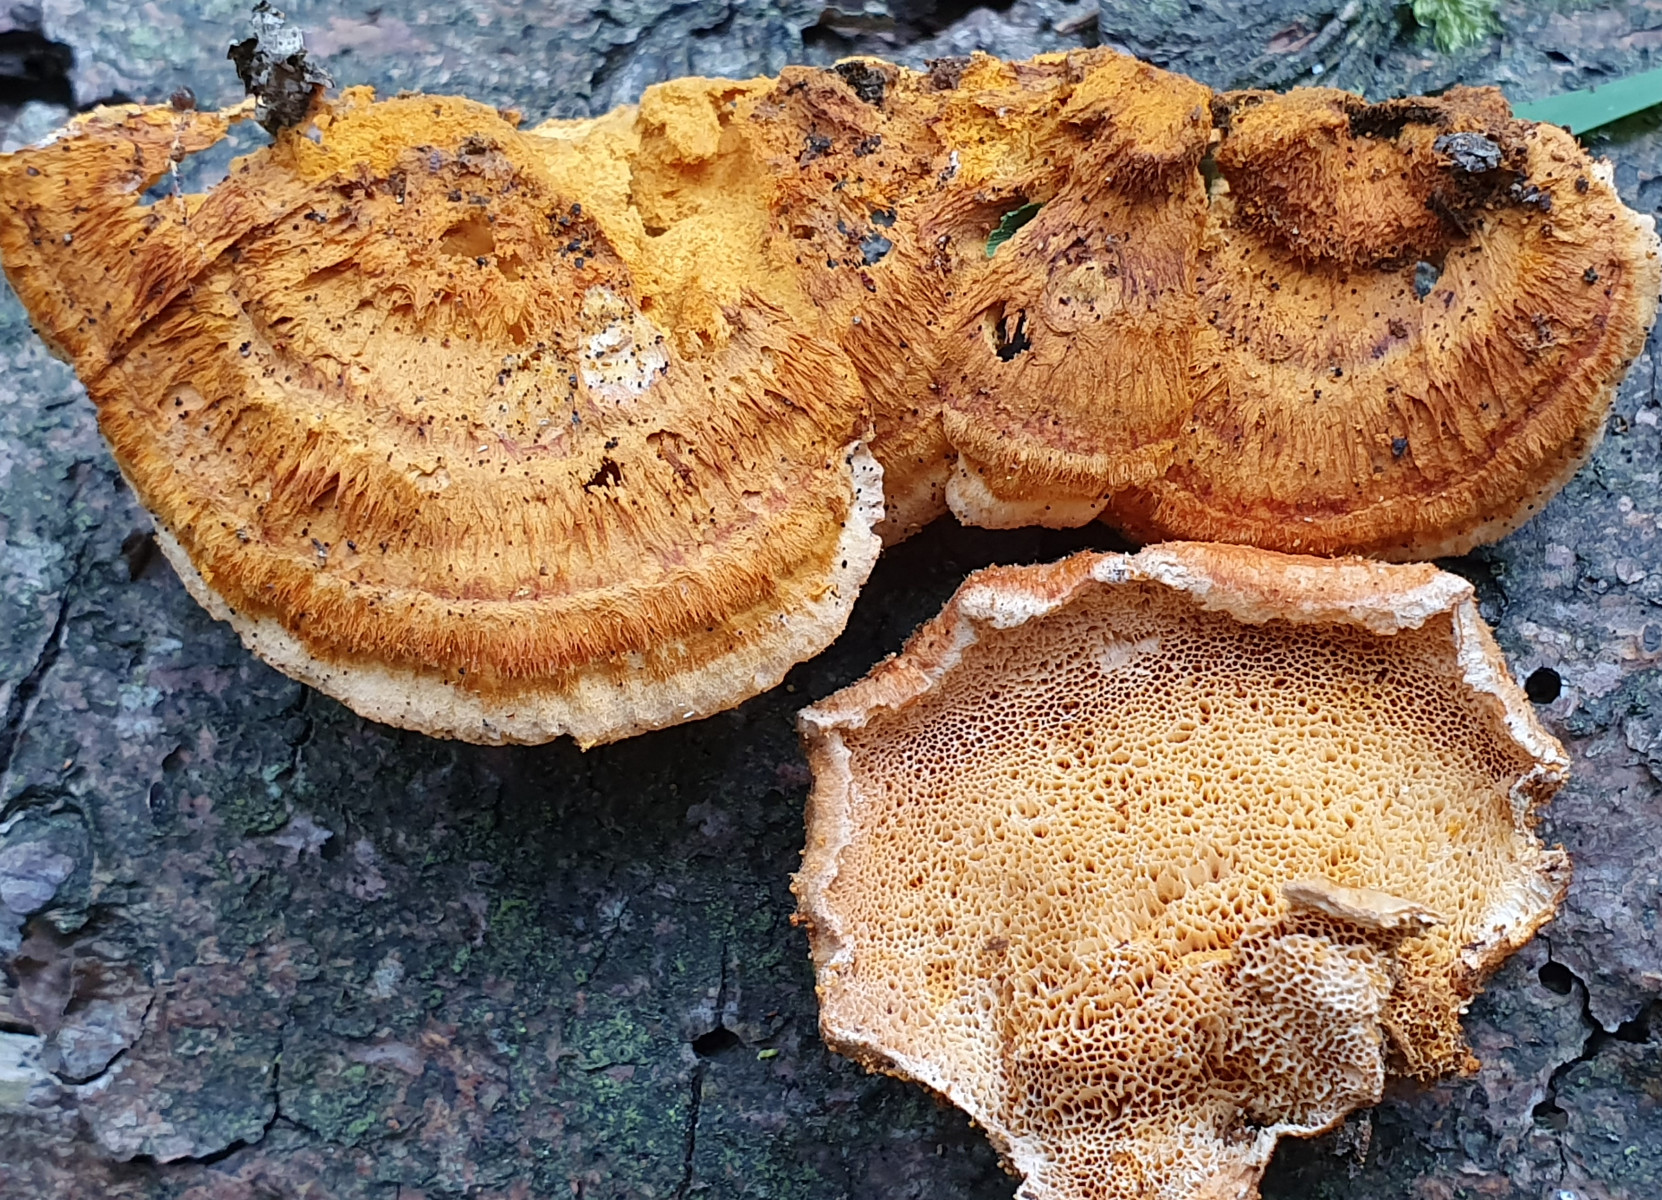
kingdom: Fungi
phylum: Basidiomycota
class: Agaricomycetes
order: Polyporales
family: Pycnoporellaceae
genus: Pycnoporellus
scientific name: Pycnoporellus fulgens
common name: flammeporesvamp
